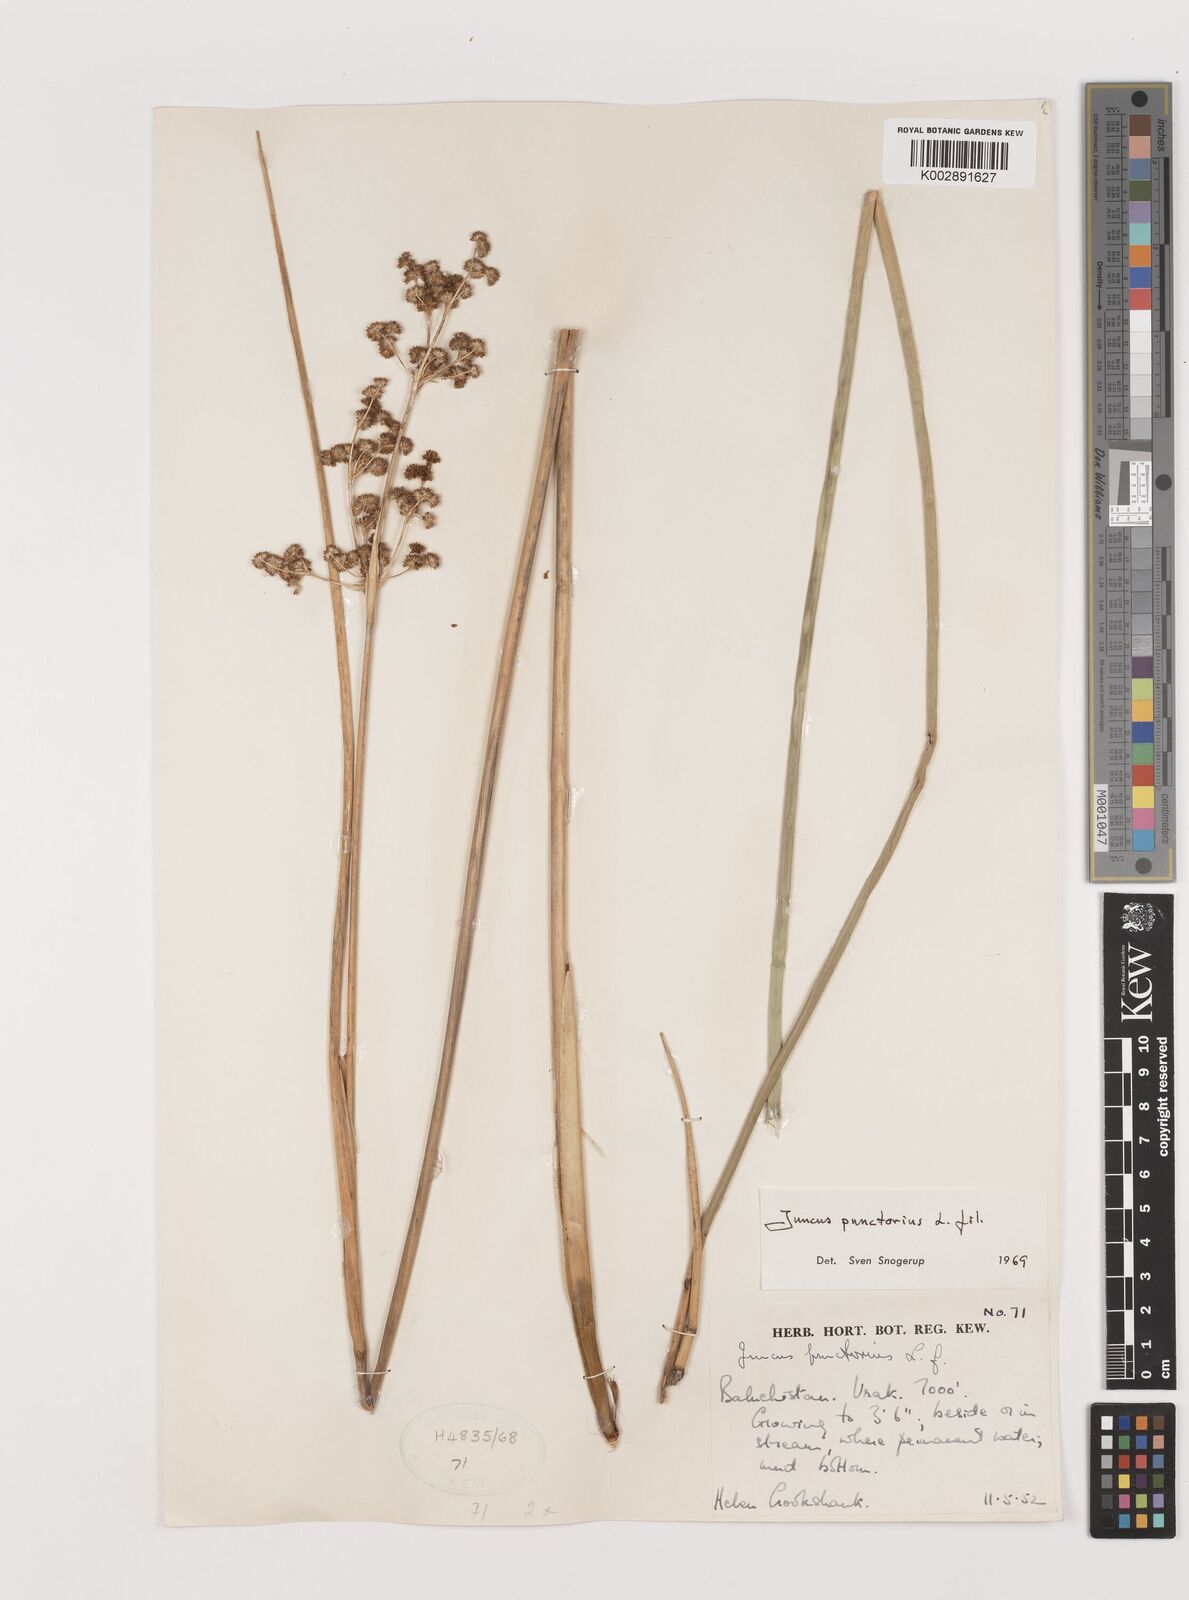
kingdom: Plantae
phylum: Tracheophyta
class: Liliopsida
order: Poales
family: Juncaceae
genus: Juncus
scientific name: Juncus punctorius
